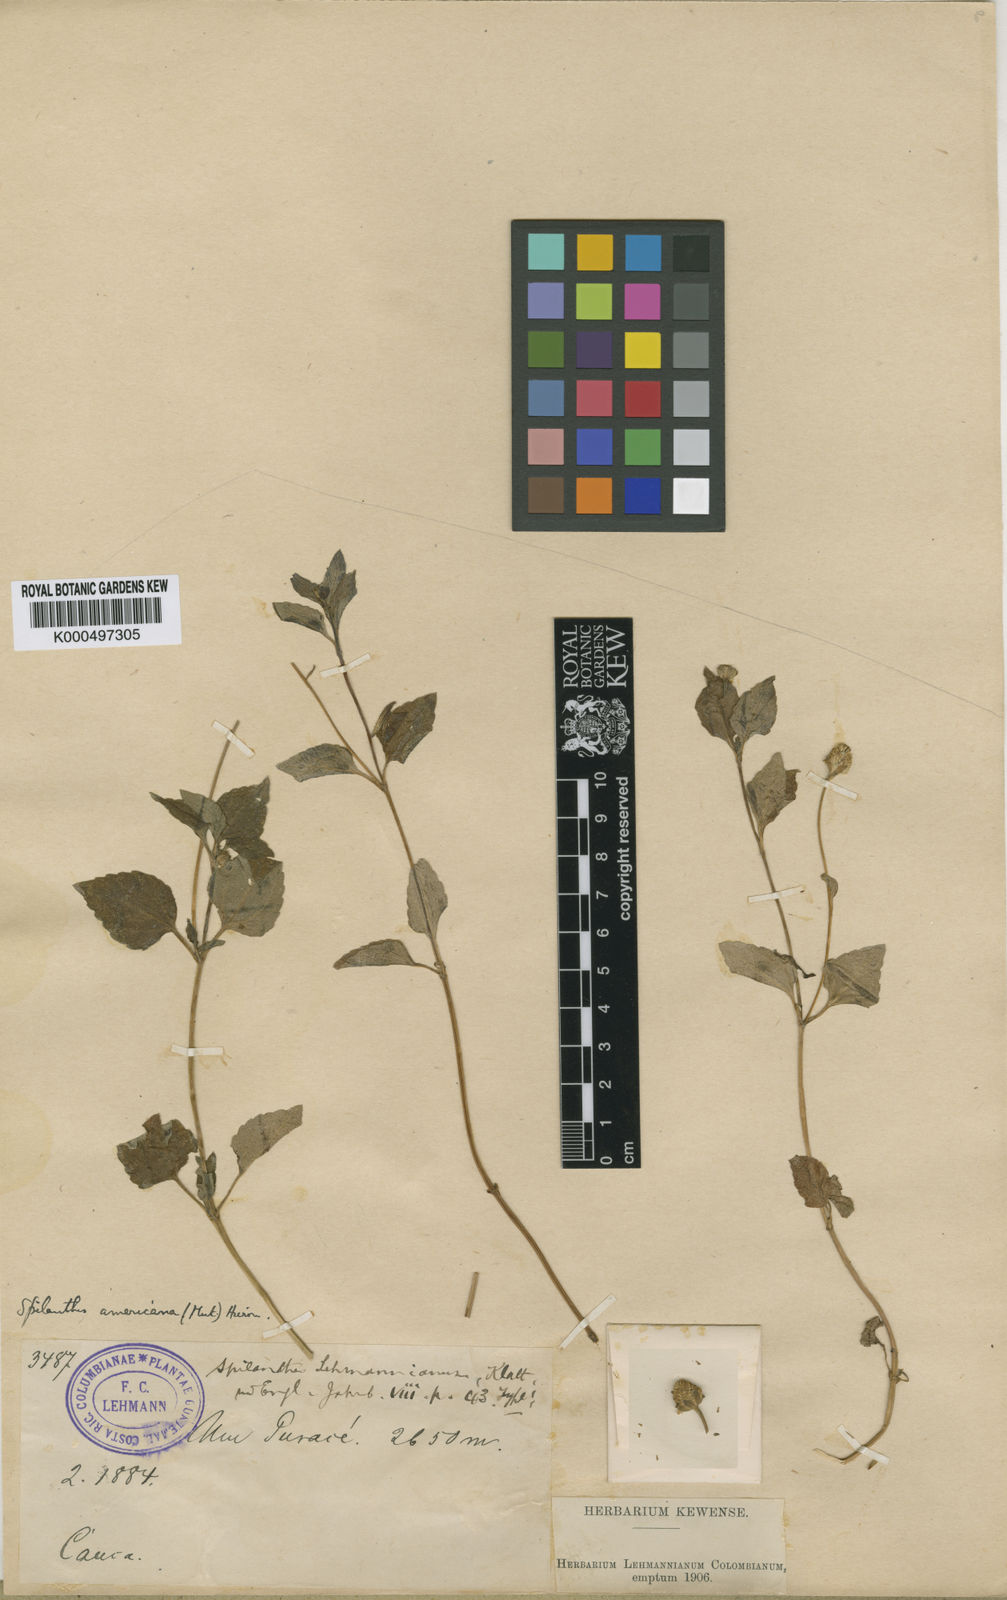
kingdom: Plantae
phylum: Tracheophyta
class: Magnoliopsida
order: Asterales
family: Asteraceae
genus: Heliopsis
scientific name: Heliopsis buphthalmoides
